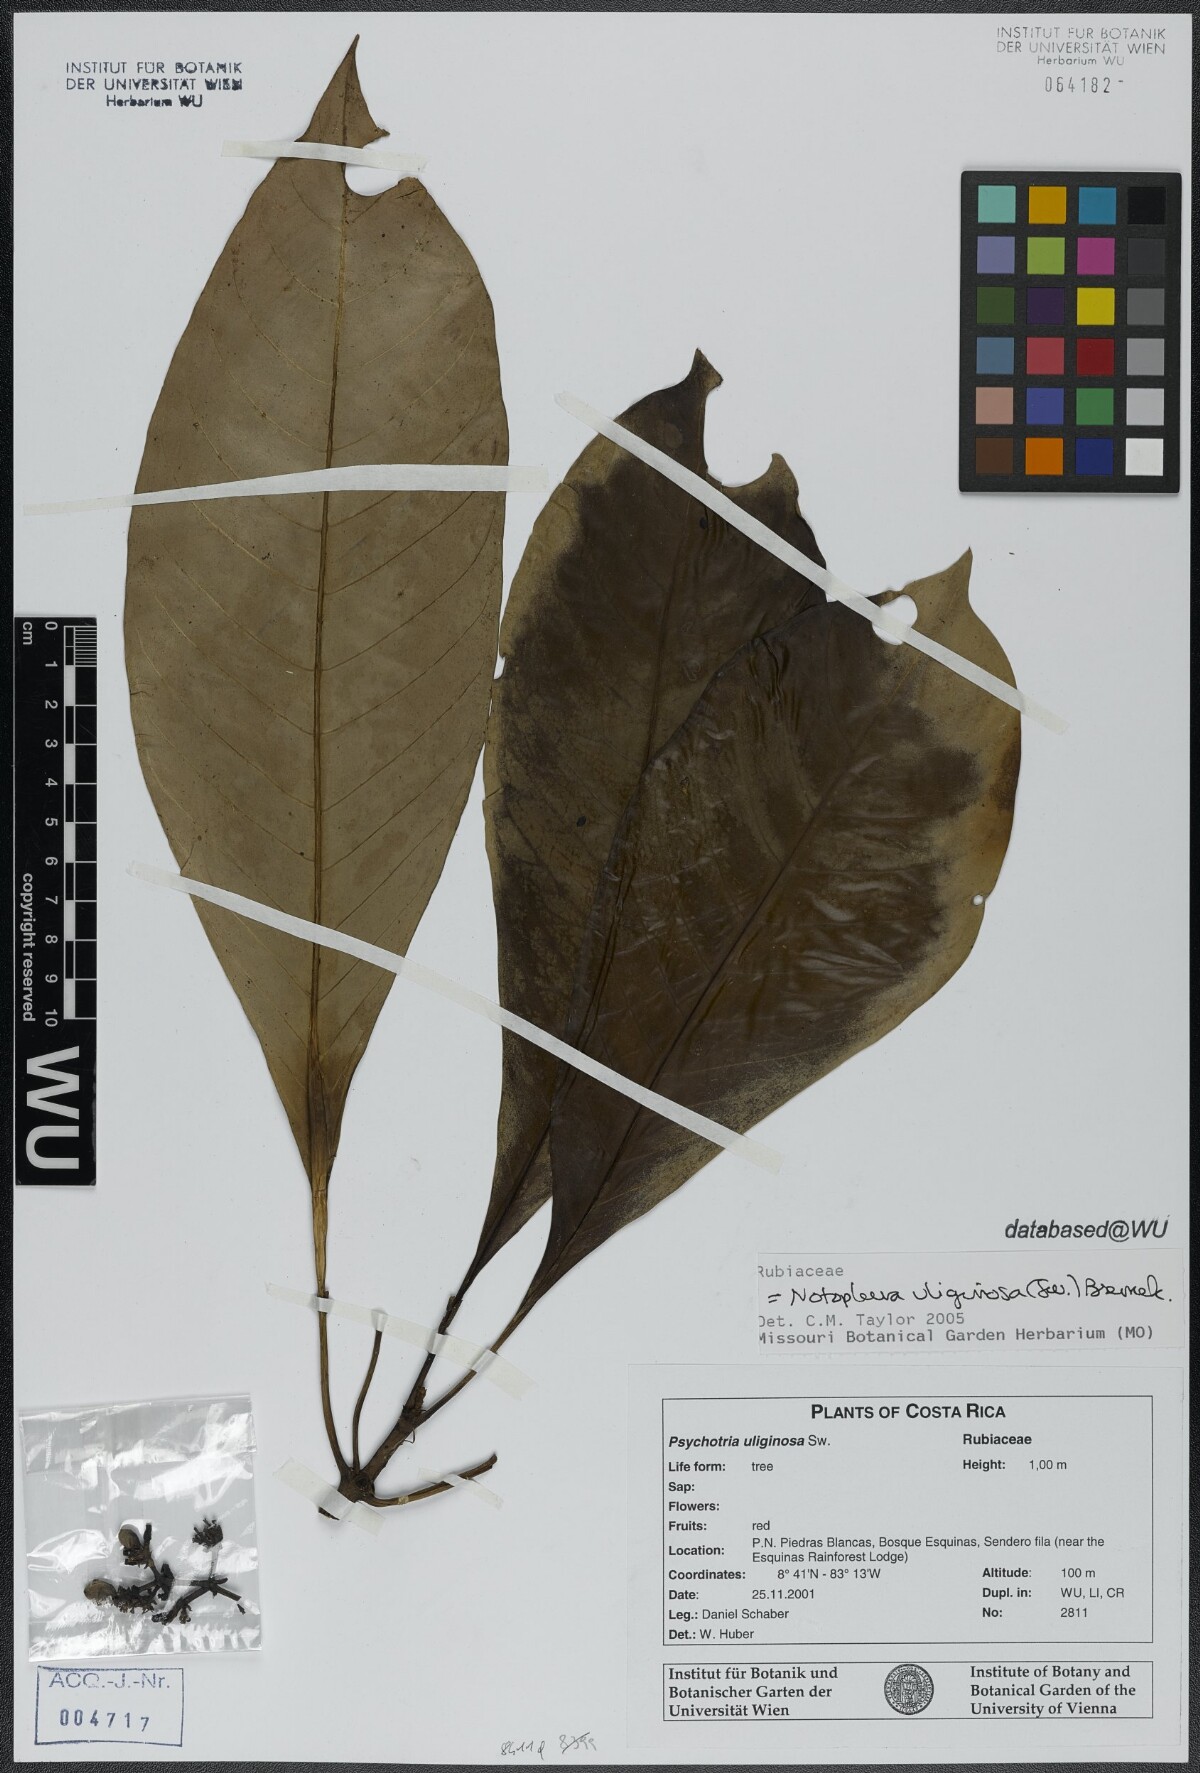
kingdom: Plantae
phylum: Tracheophyta
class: Magnoliopsida
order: Gentianales
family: Rubiaceae
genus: Notopleura
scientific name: Notopleura uliginosa
